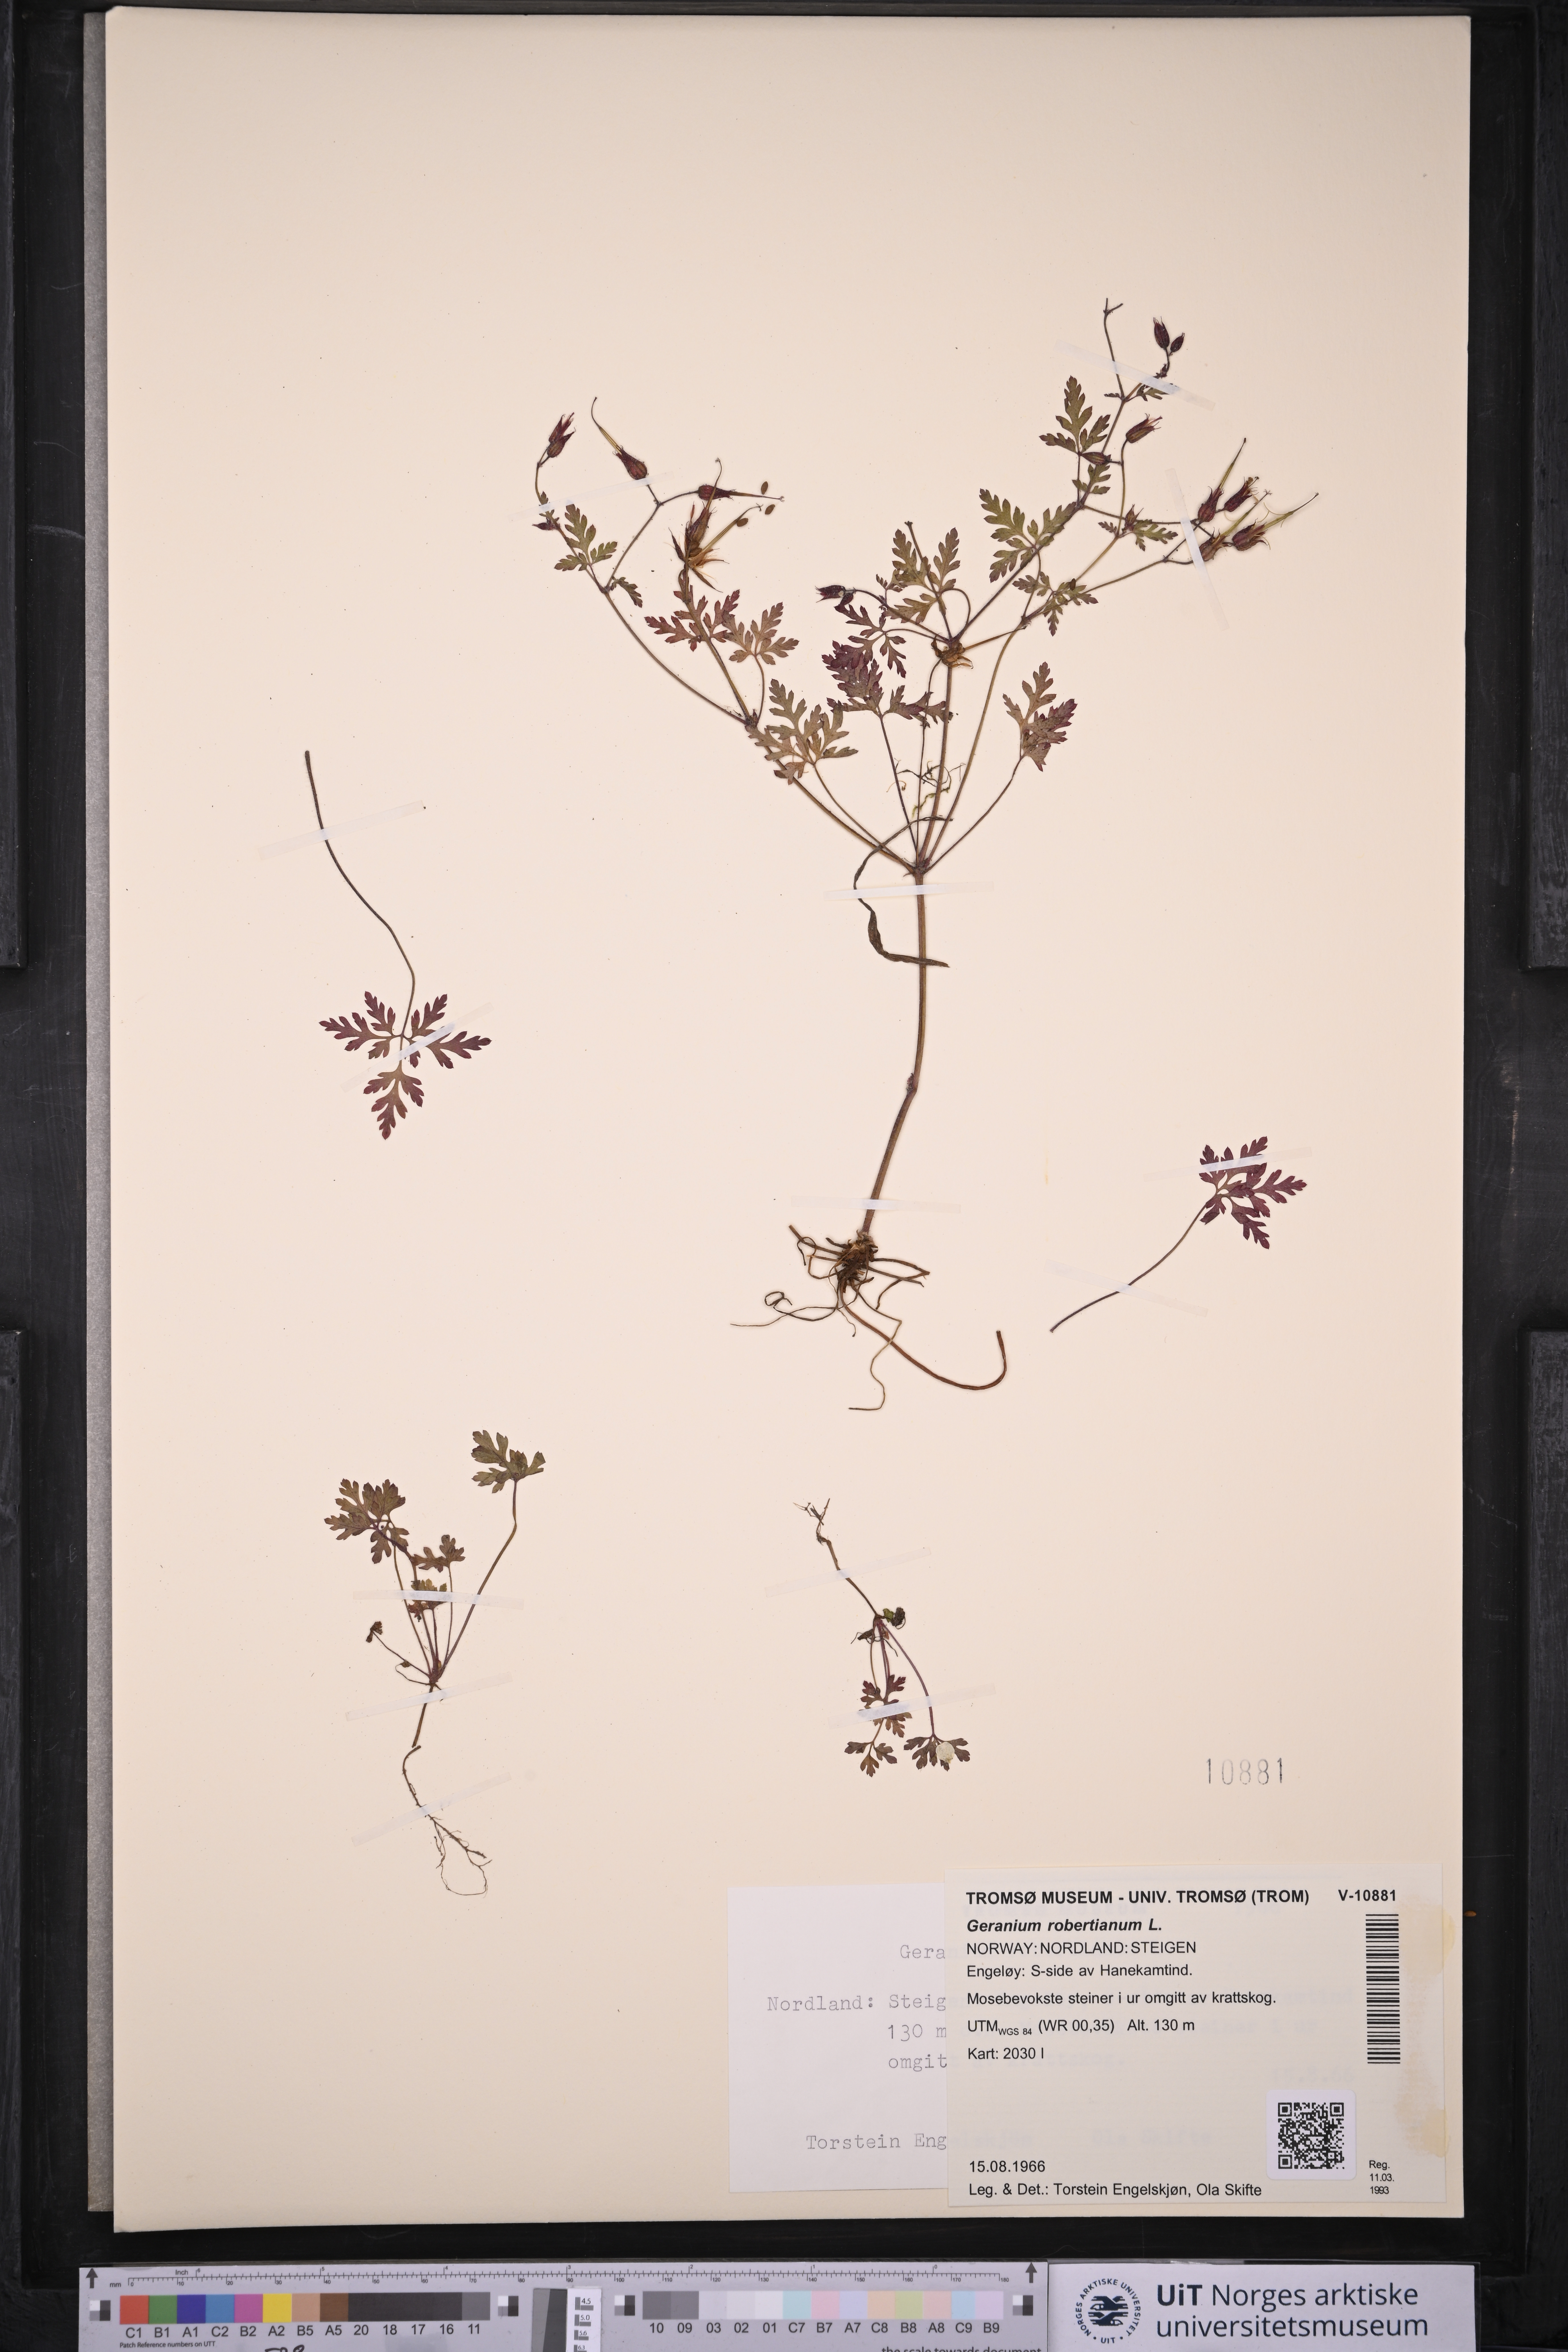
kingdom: Plantae
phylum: Tracheophyta
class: Magnoliopsida
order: Geraniales
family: Geraniaceae
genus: Geranium
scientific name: Geranium robertianum
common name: Herb-robert
